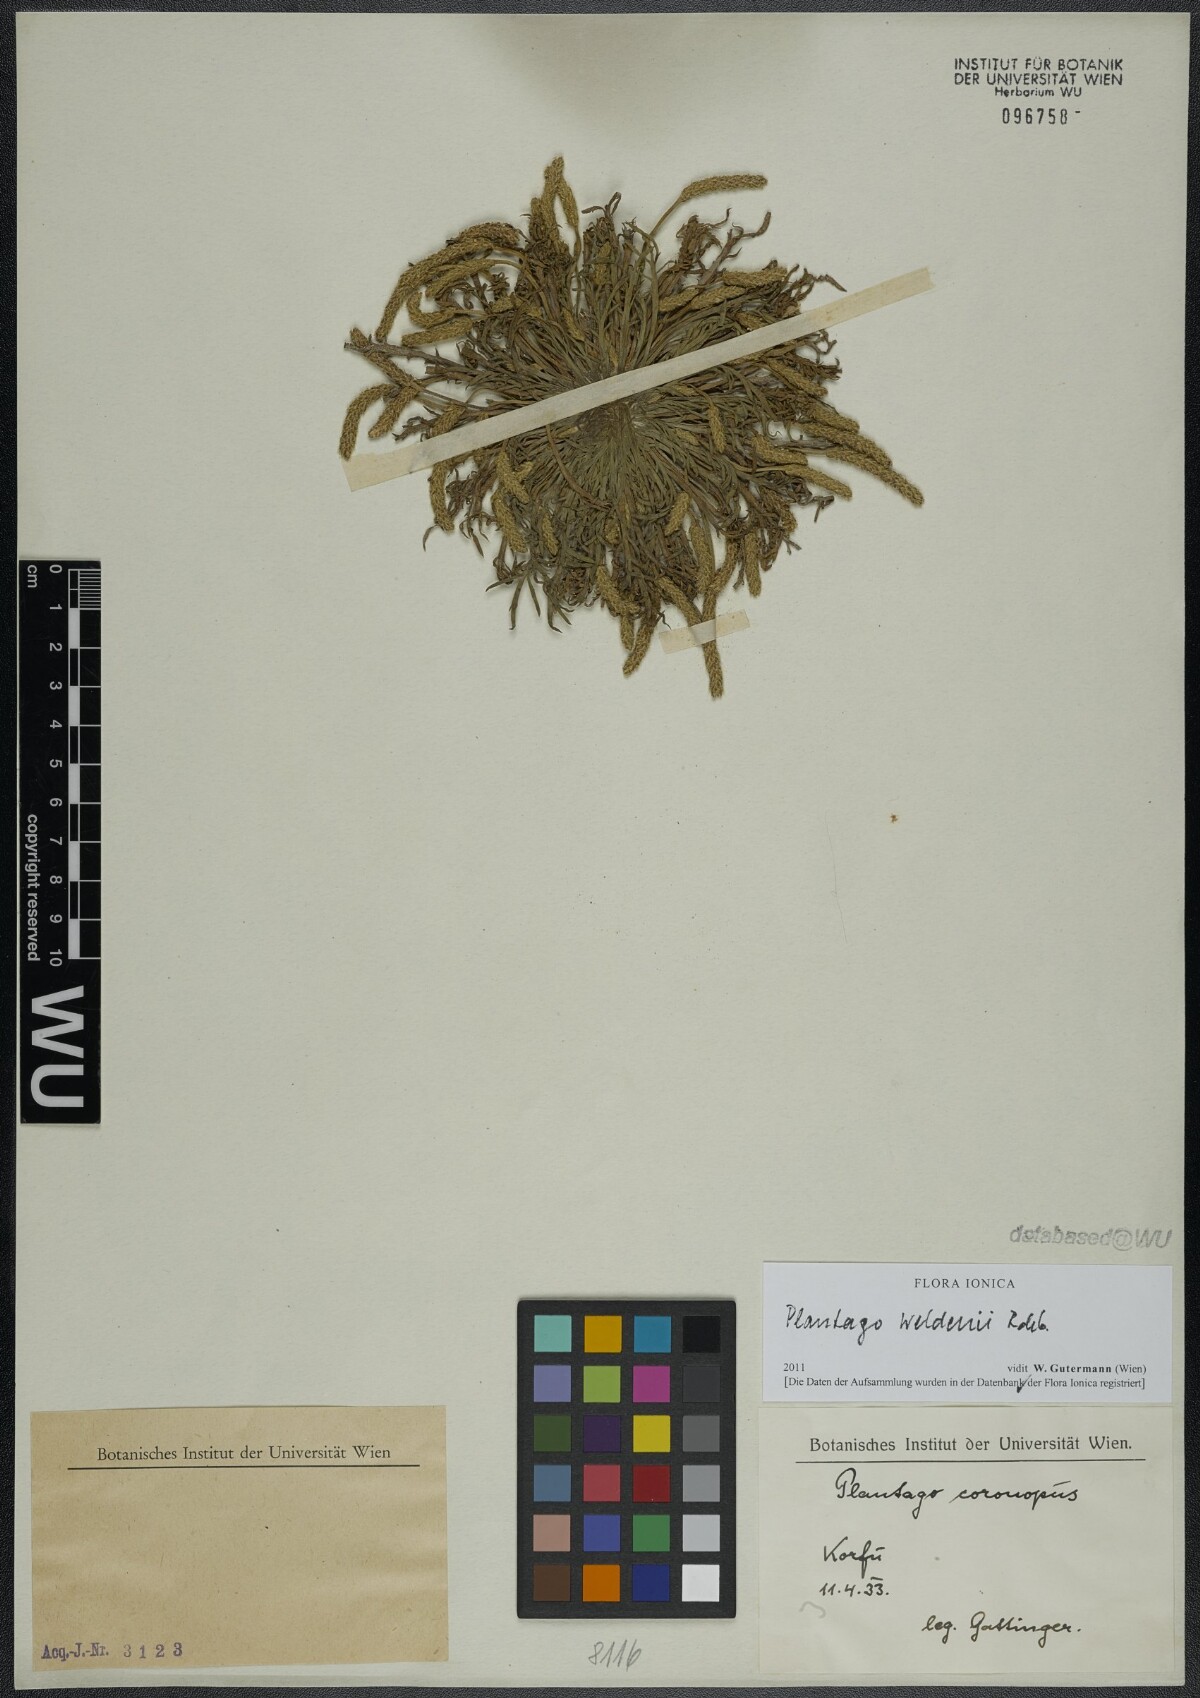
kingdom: Plantae
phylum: Tracheophyta
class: Magnoliopsida
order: Lamiales
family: Plantaginaceae
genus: Plantago
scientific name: Plantago weldenii
